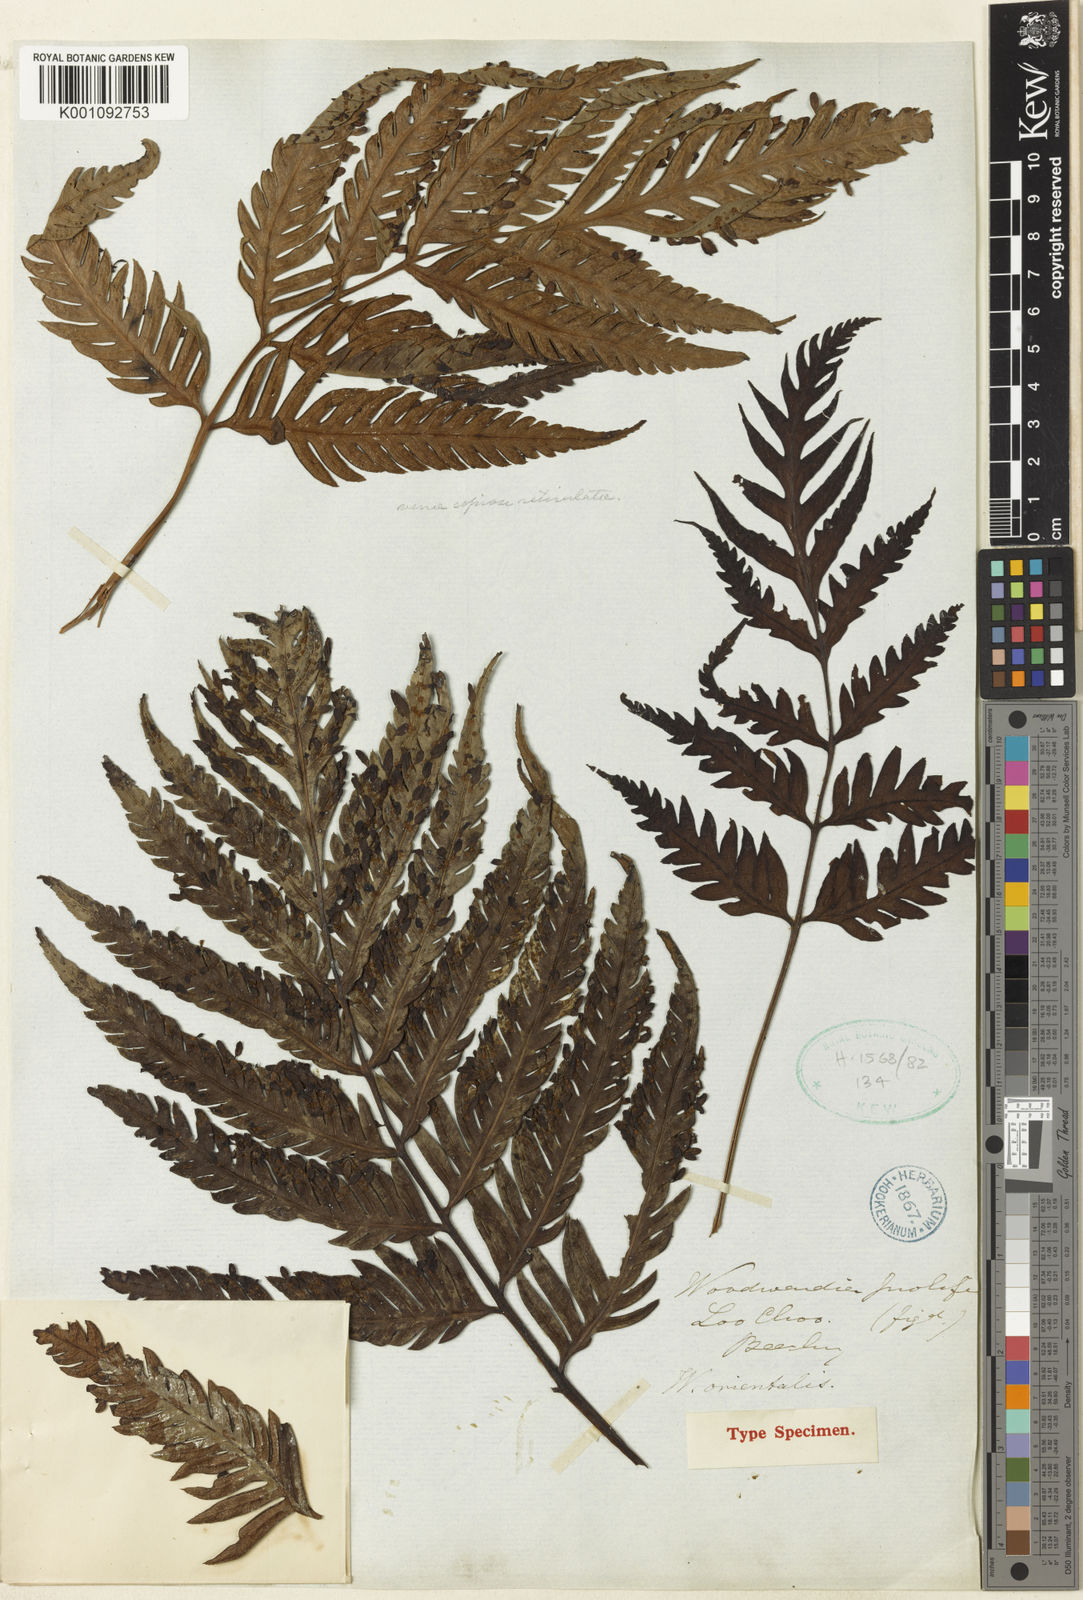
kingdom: Plantae
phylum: Tracheophyta
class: Polypodiopsida
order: Polypodiales
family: Blechnaceae
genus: Woodwardia
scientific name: Woodwardia prolifera
